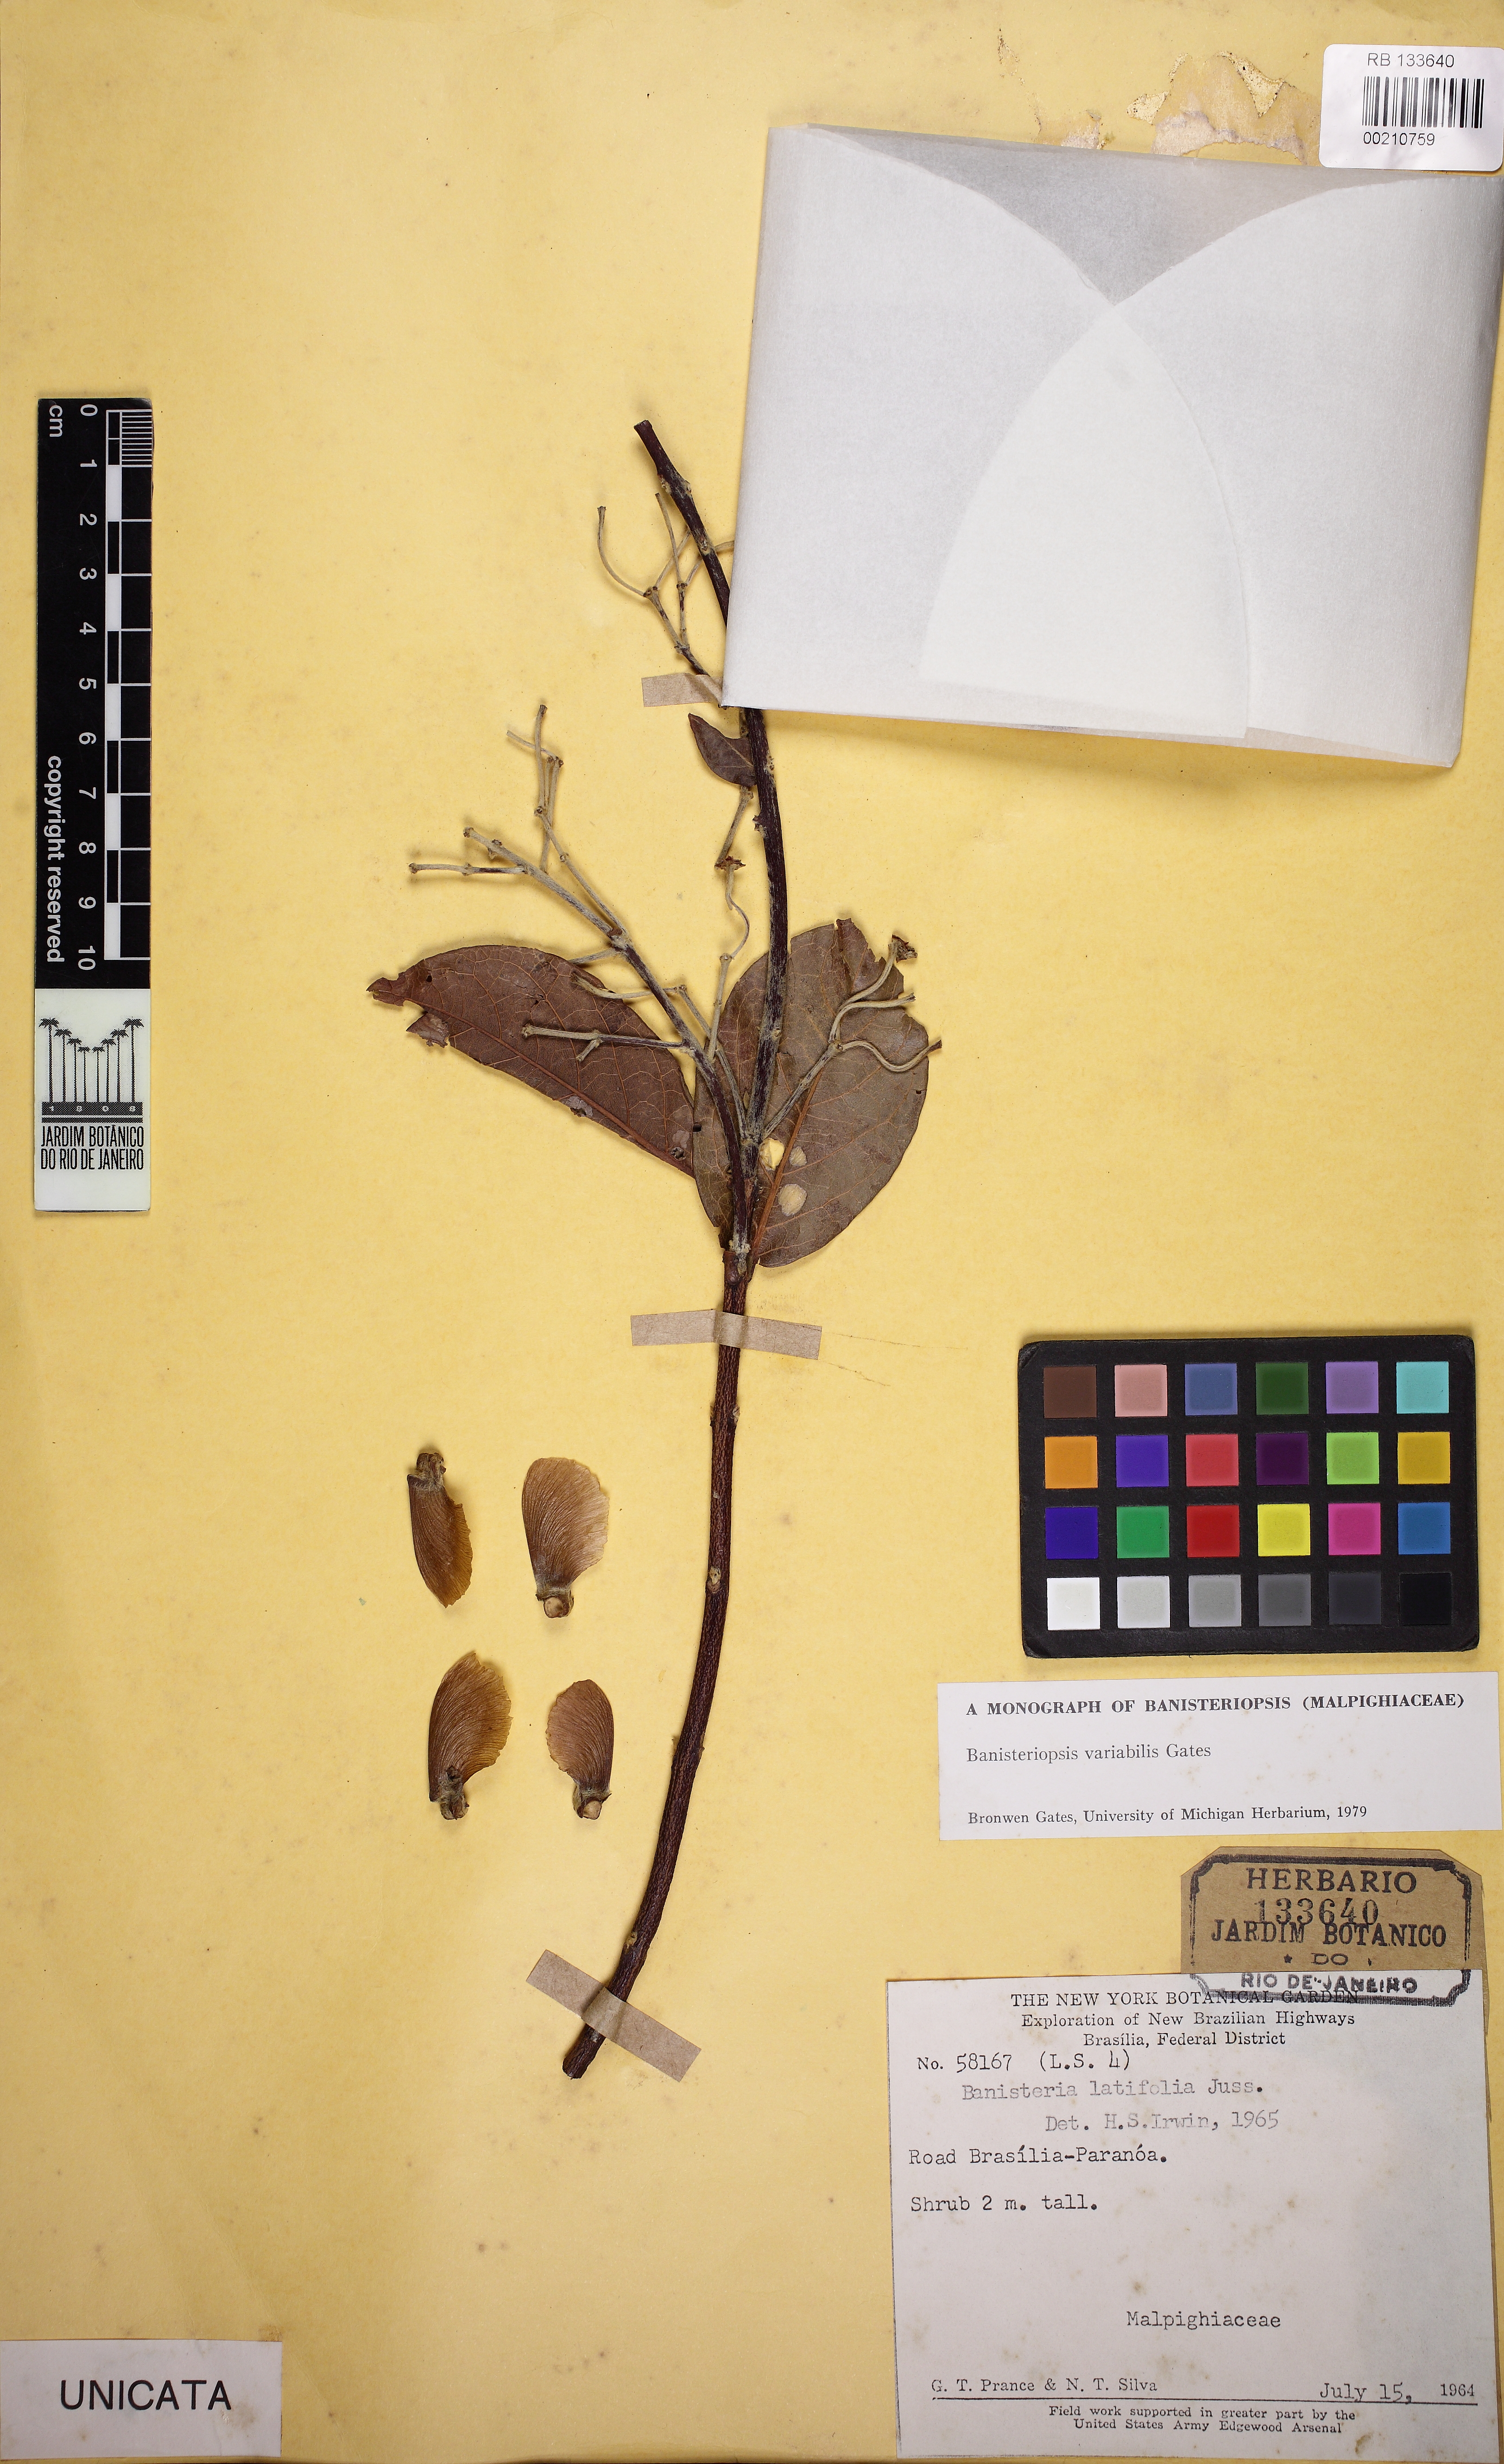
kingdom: Plantae
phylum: Tracheophyta
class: Magnoliopsida
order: Malpighiales
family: Malpighiaceae
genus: Banisteriopsis
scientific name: Banisteriopsis variabilis
